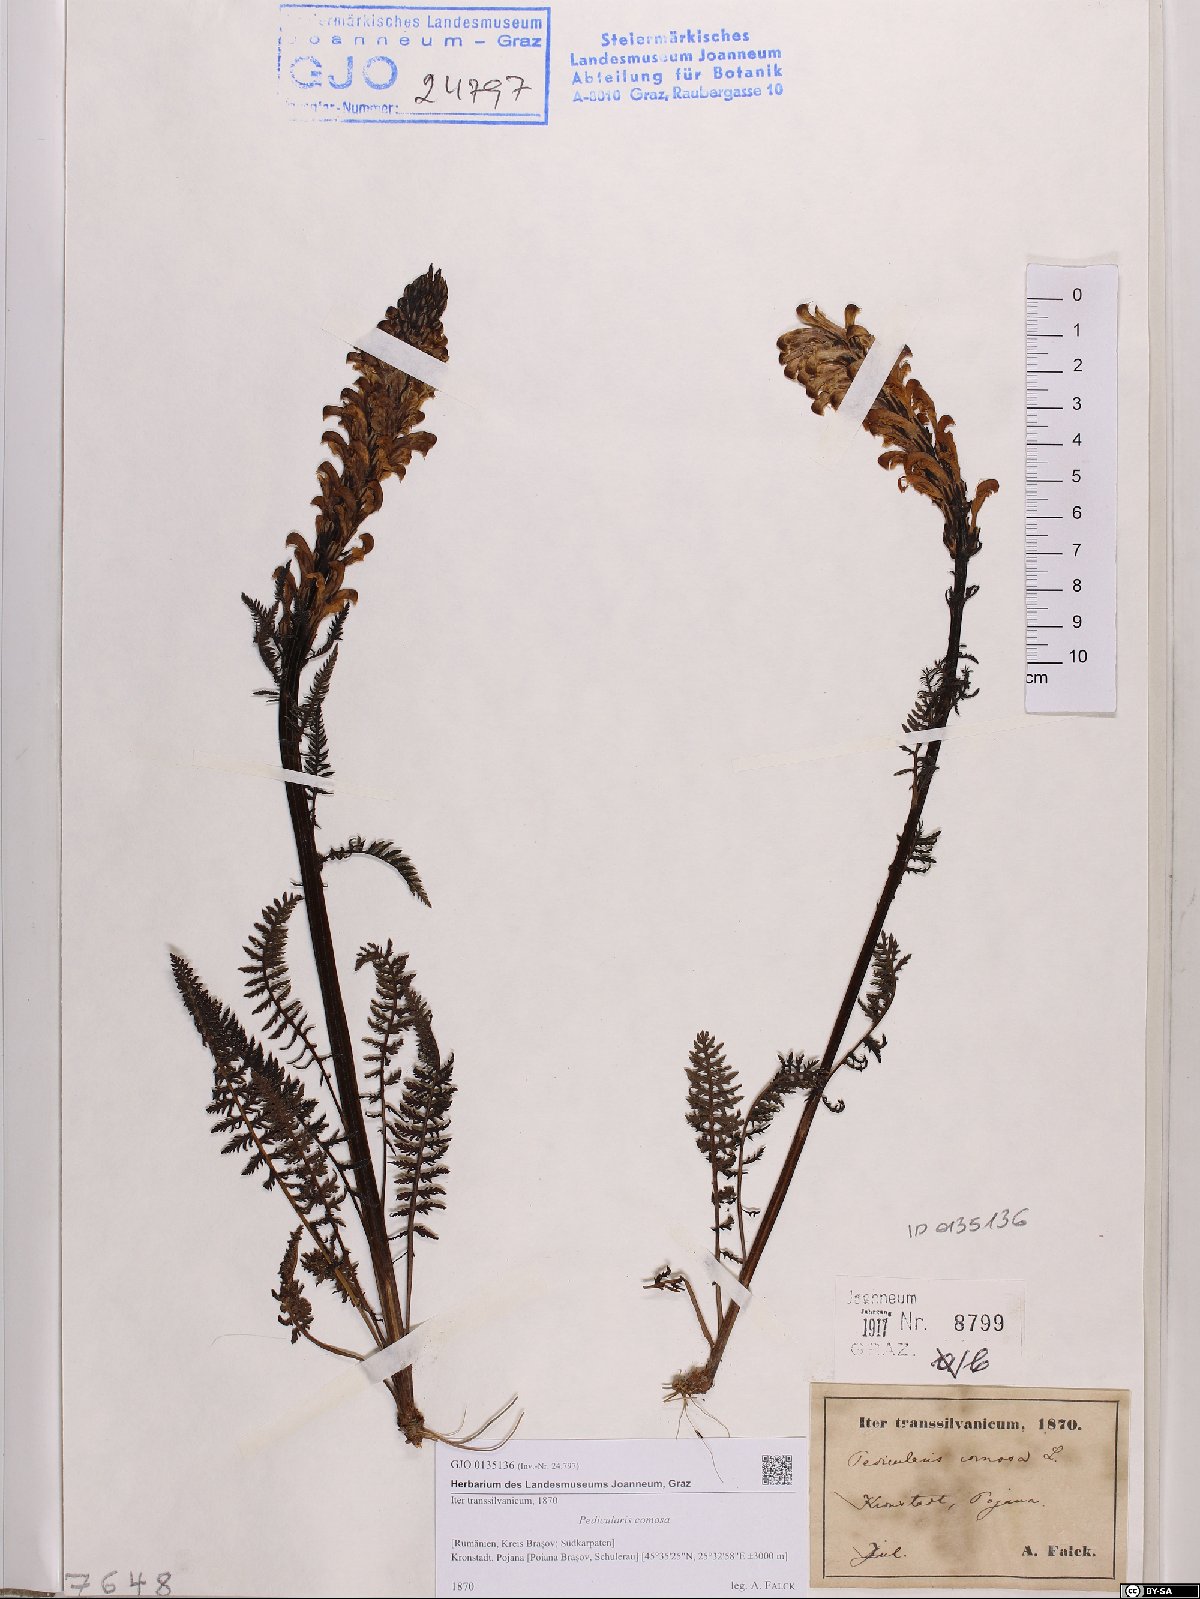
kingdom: Plantae
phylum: Tracheophyta
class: Magnoliopsida
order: Lamiales
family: Orobanchaceae
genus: Pedicularis
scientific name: Pedicularis comosa
